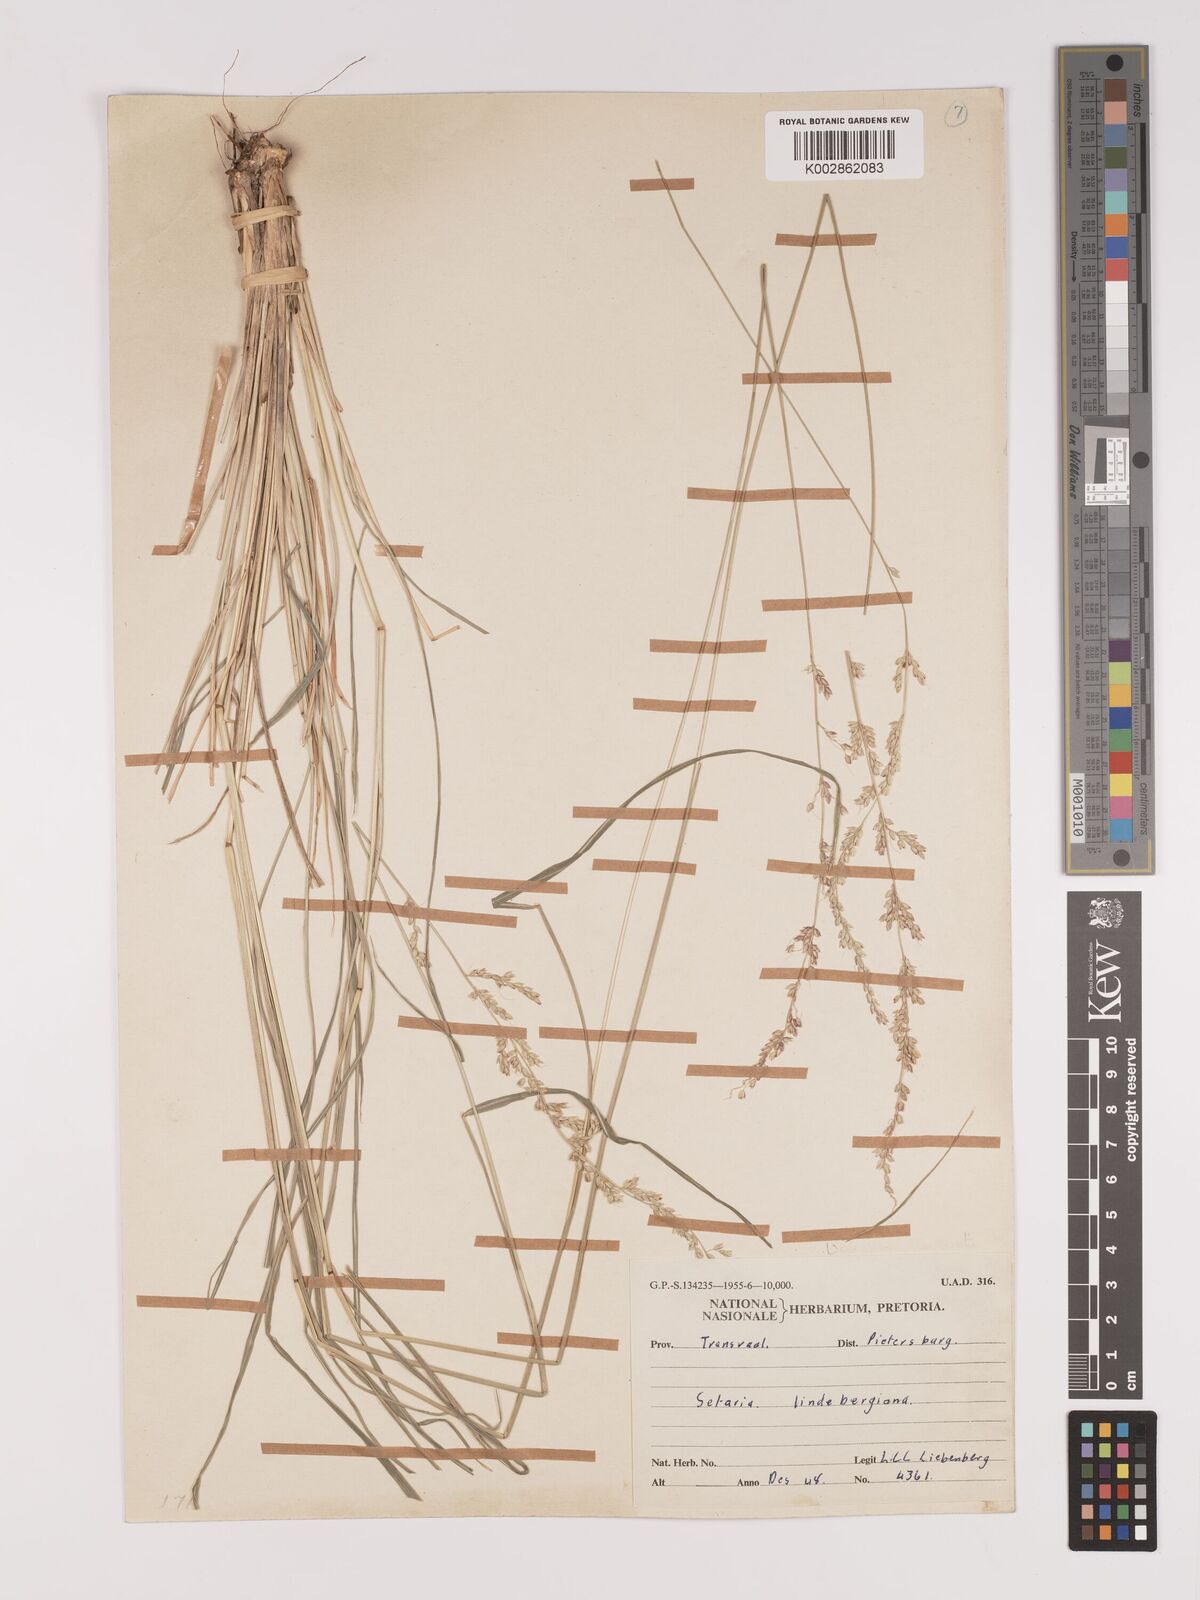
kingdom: Plantae
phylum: Tracheophyta
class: Liliopsida
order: Poales
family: Poaceae
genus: Setaria
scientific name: Setaria lindenbergiana
